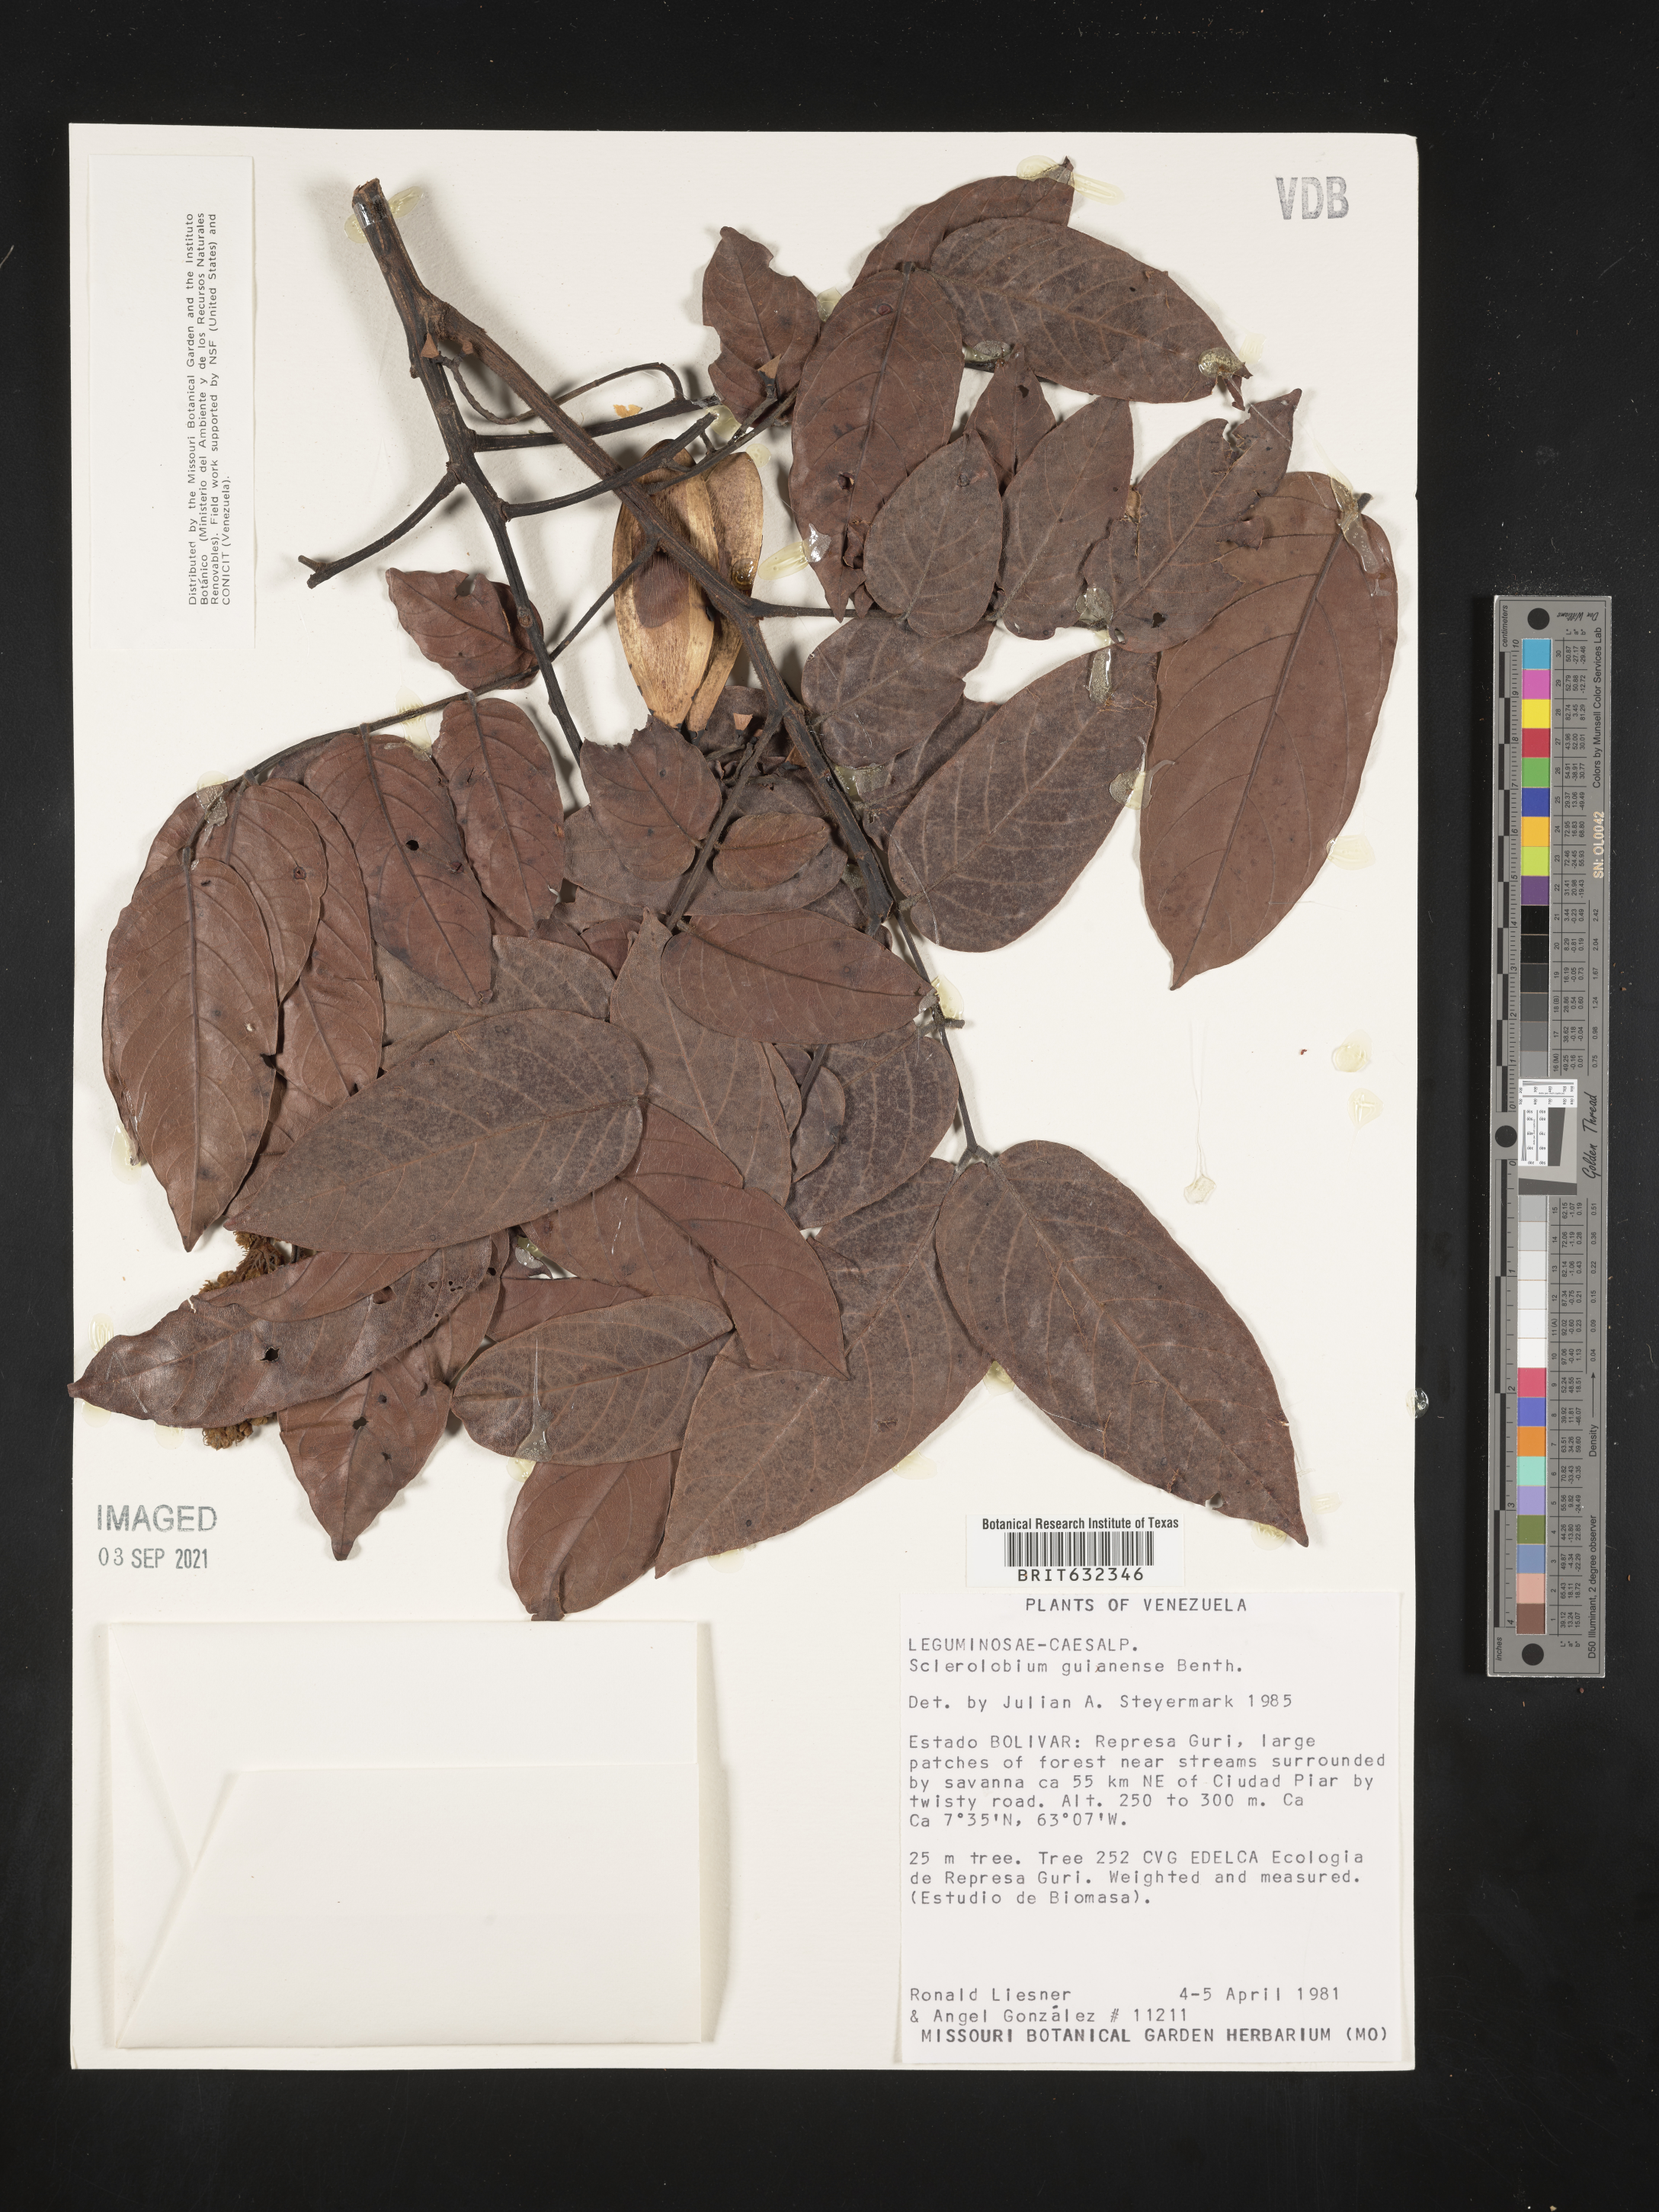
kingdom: Plantae
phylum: Tracheophyta
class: Magnoliopsida
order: Fabales
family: Fabaceae
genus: Tachigali
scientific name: Tachigali
